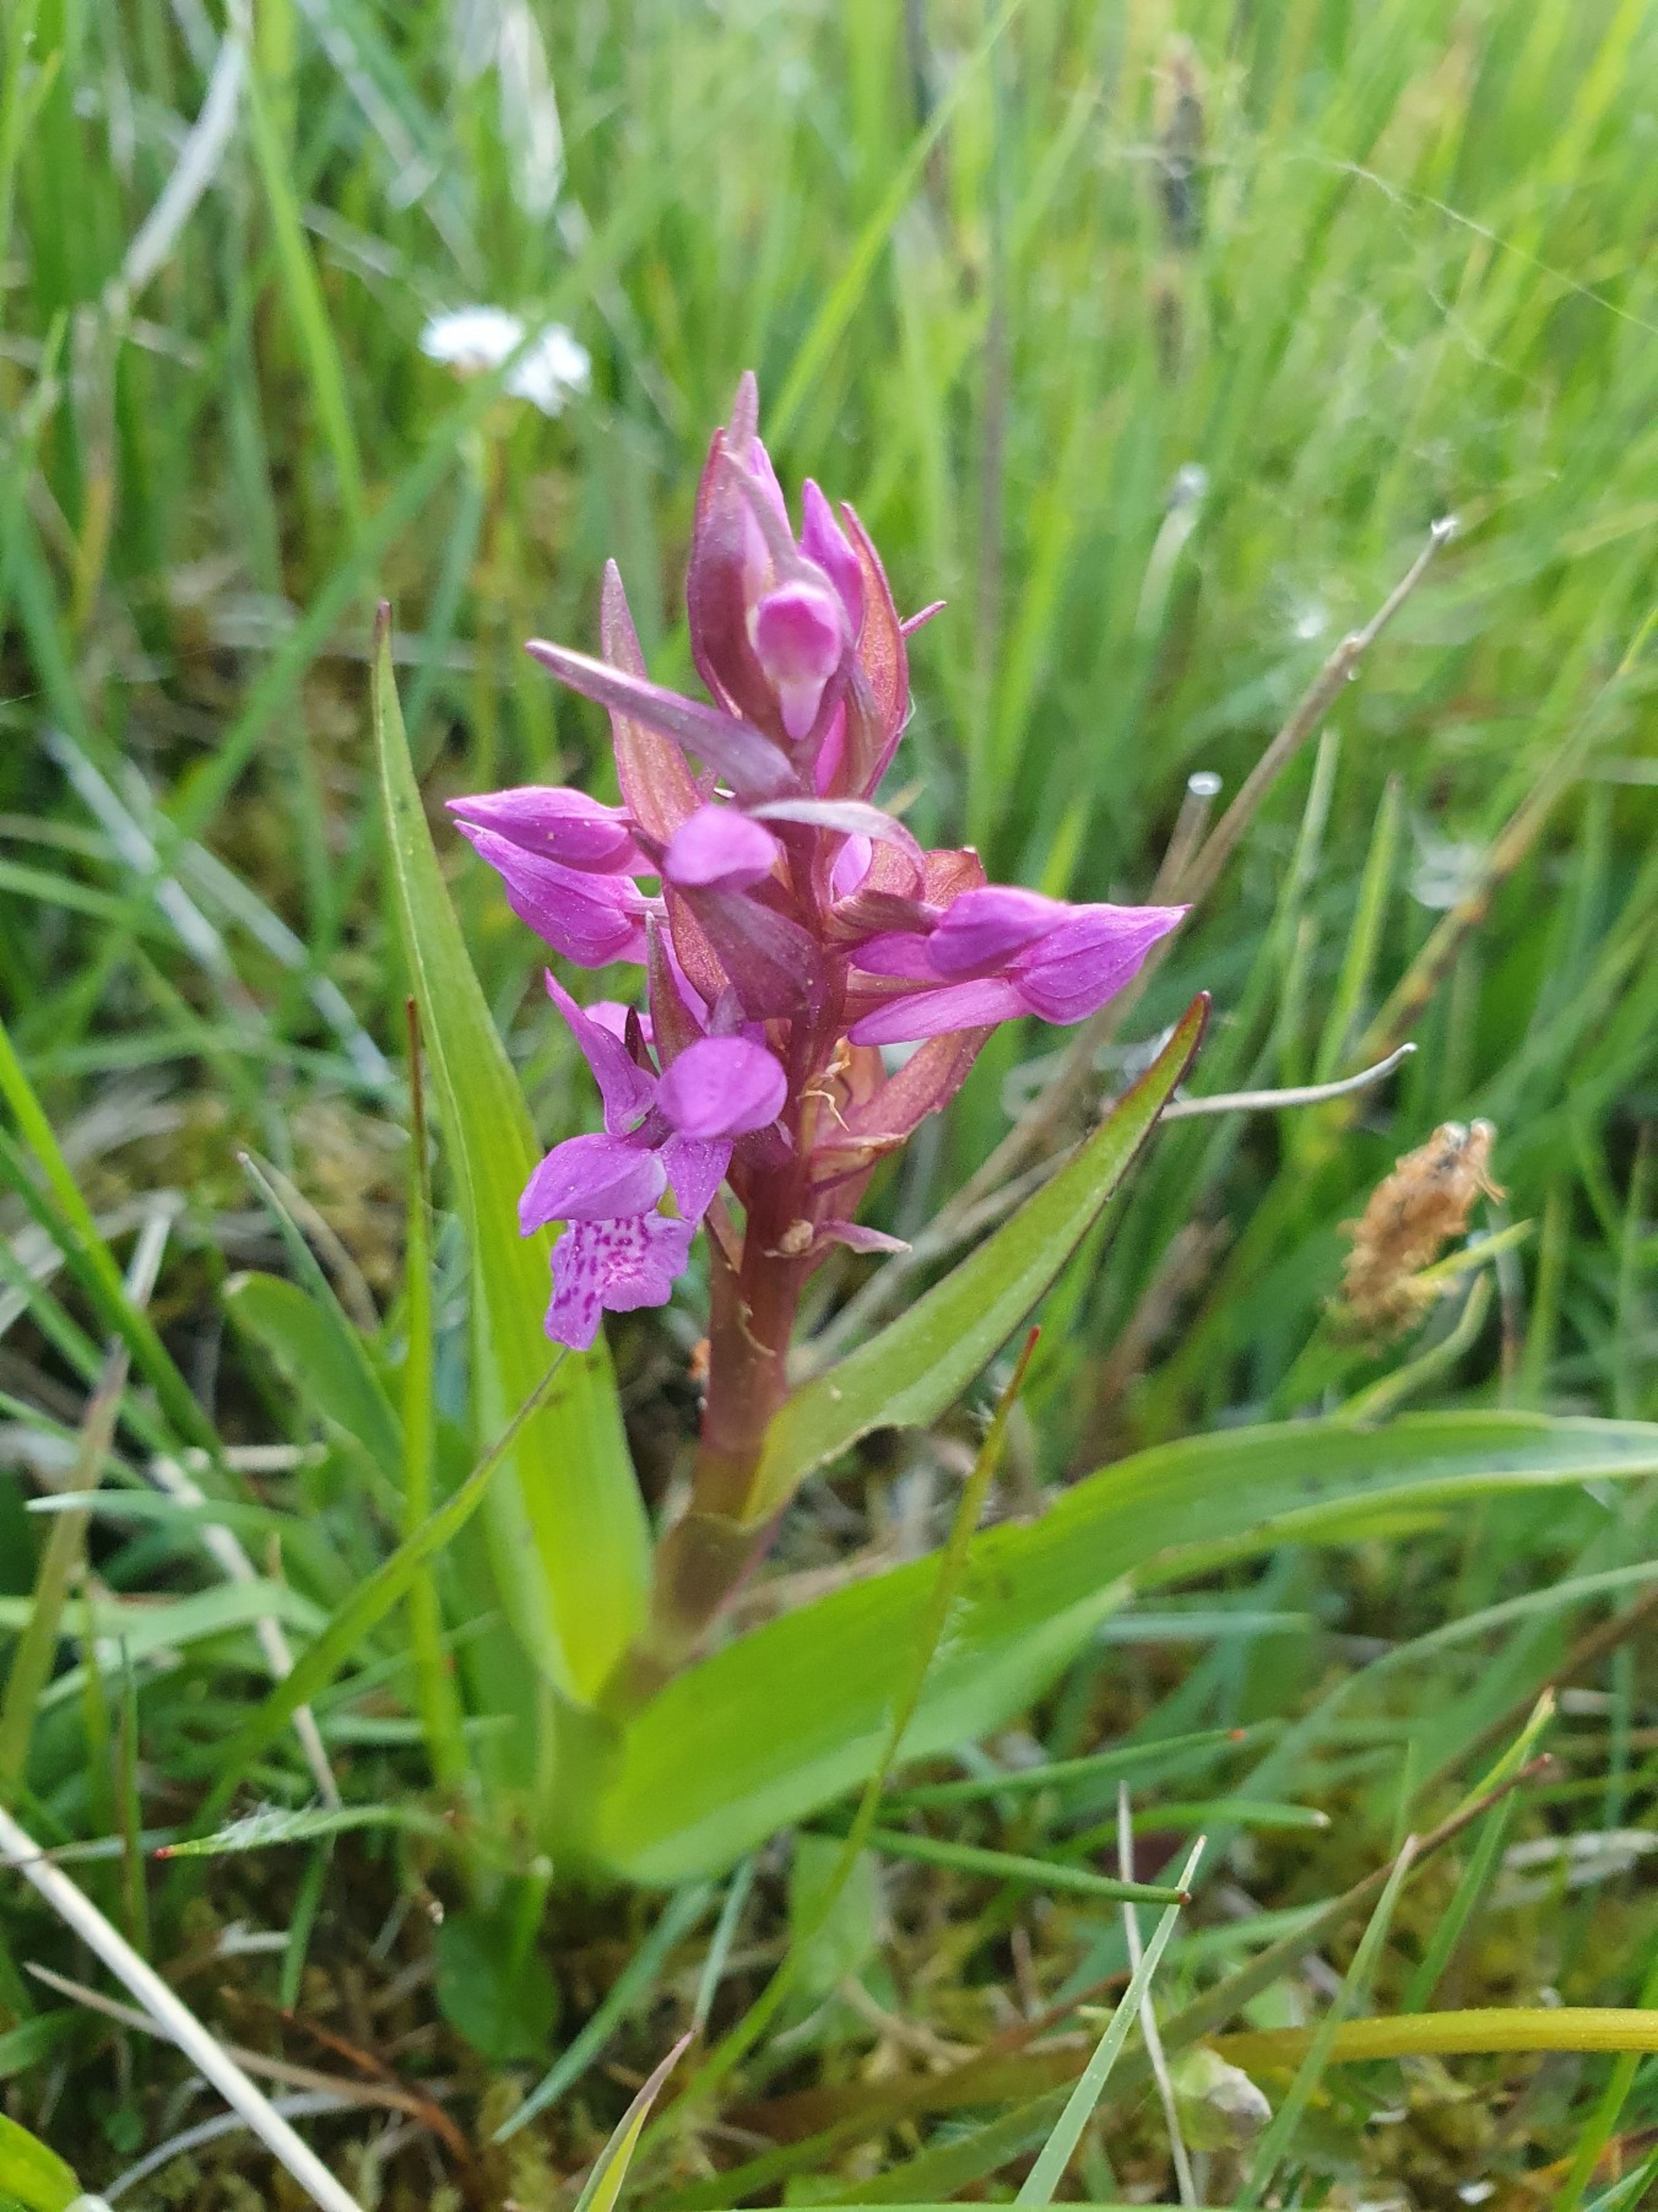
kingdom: Plantae
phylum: Tracheophyta
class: Liliopsida
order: Asparagales
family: Orchidaceae
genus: Dactylorhiza
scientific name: Dactylorhiza incarnata
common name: Kødfarvet gøgeurt
